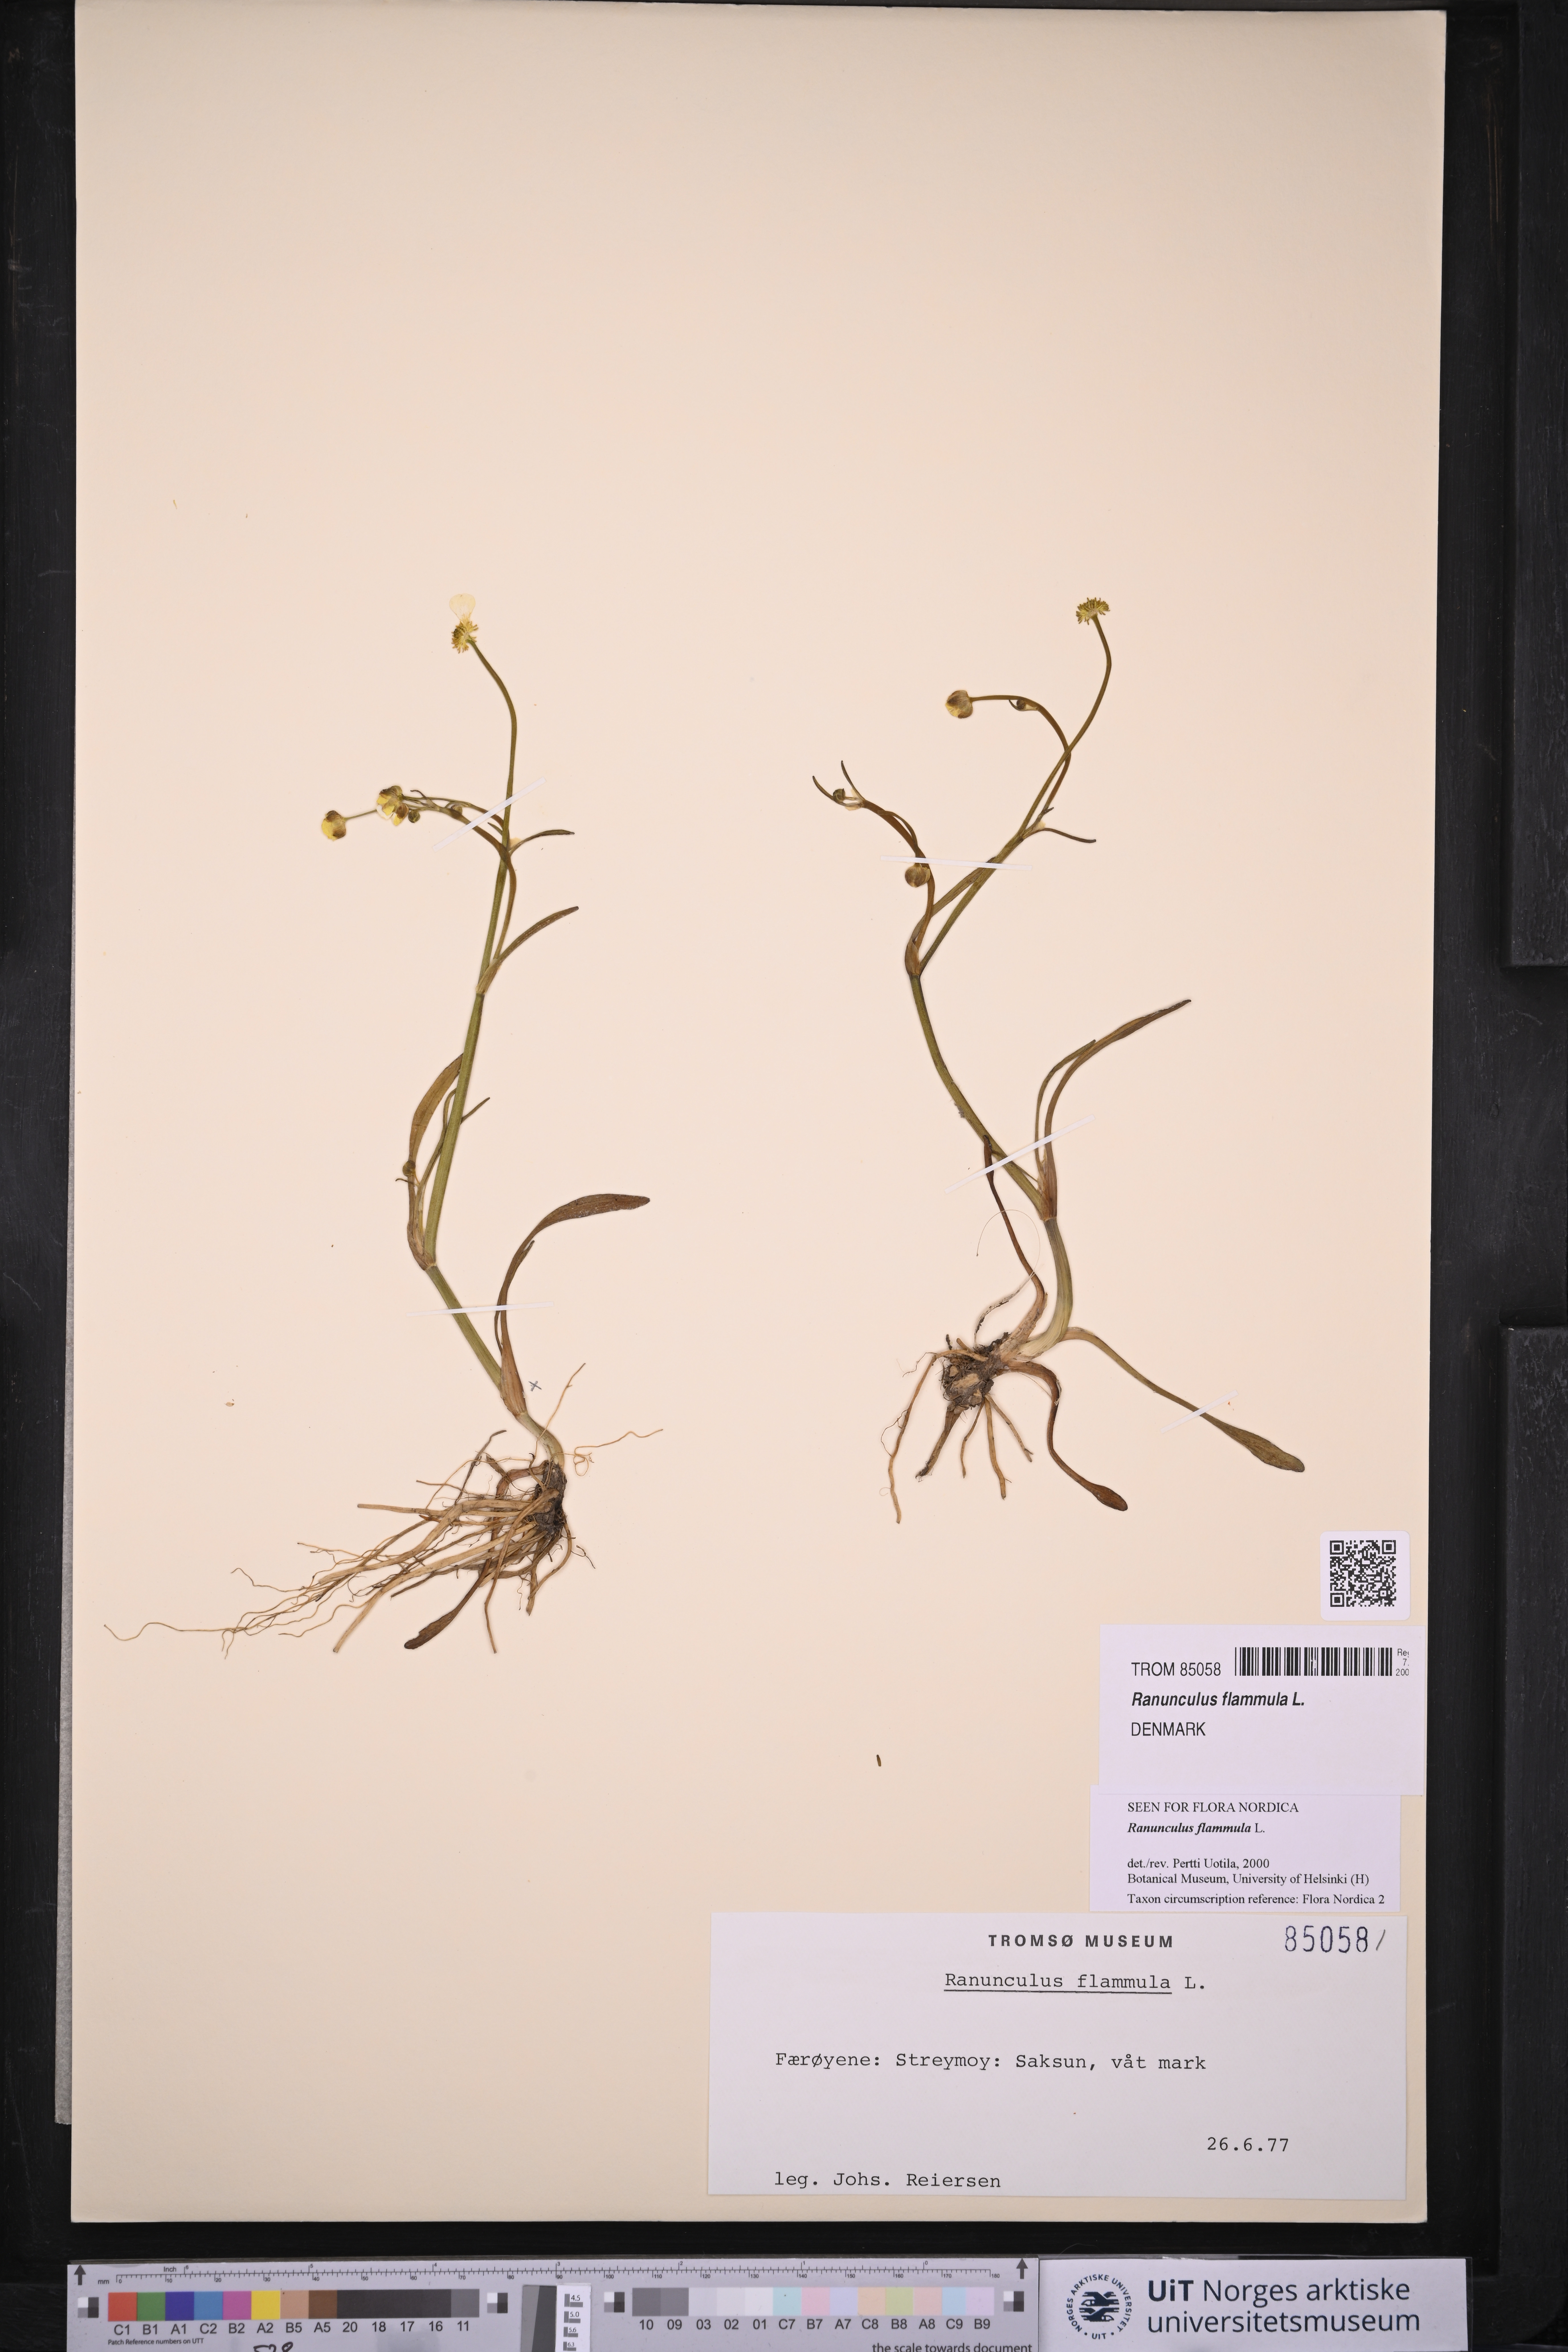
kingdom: Plantae
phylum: Tracheophyta
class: Magnoliopsida
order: Ranunculales
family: Ranunculaceae
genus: Ranunculus
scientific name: Ranunculus flammula
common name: Lesser spearwort
